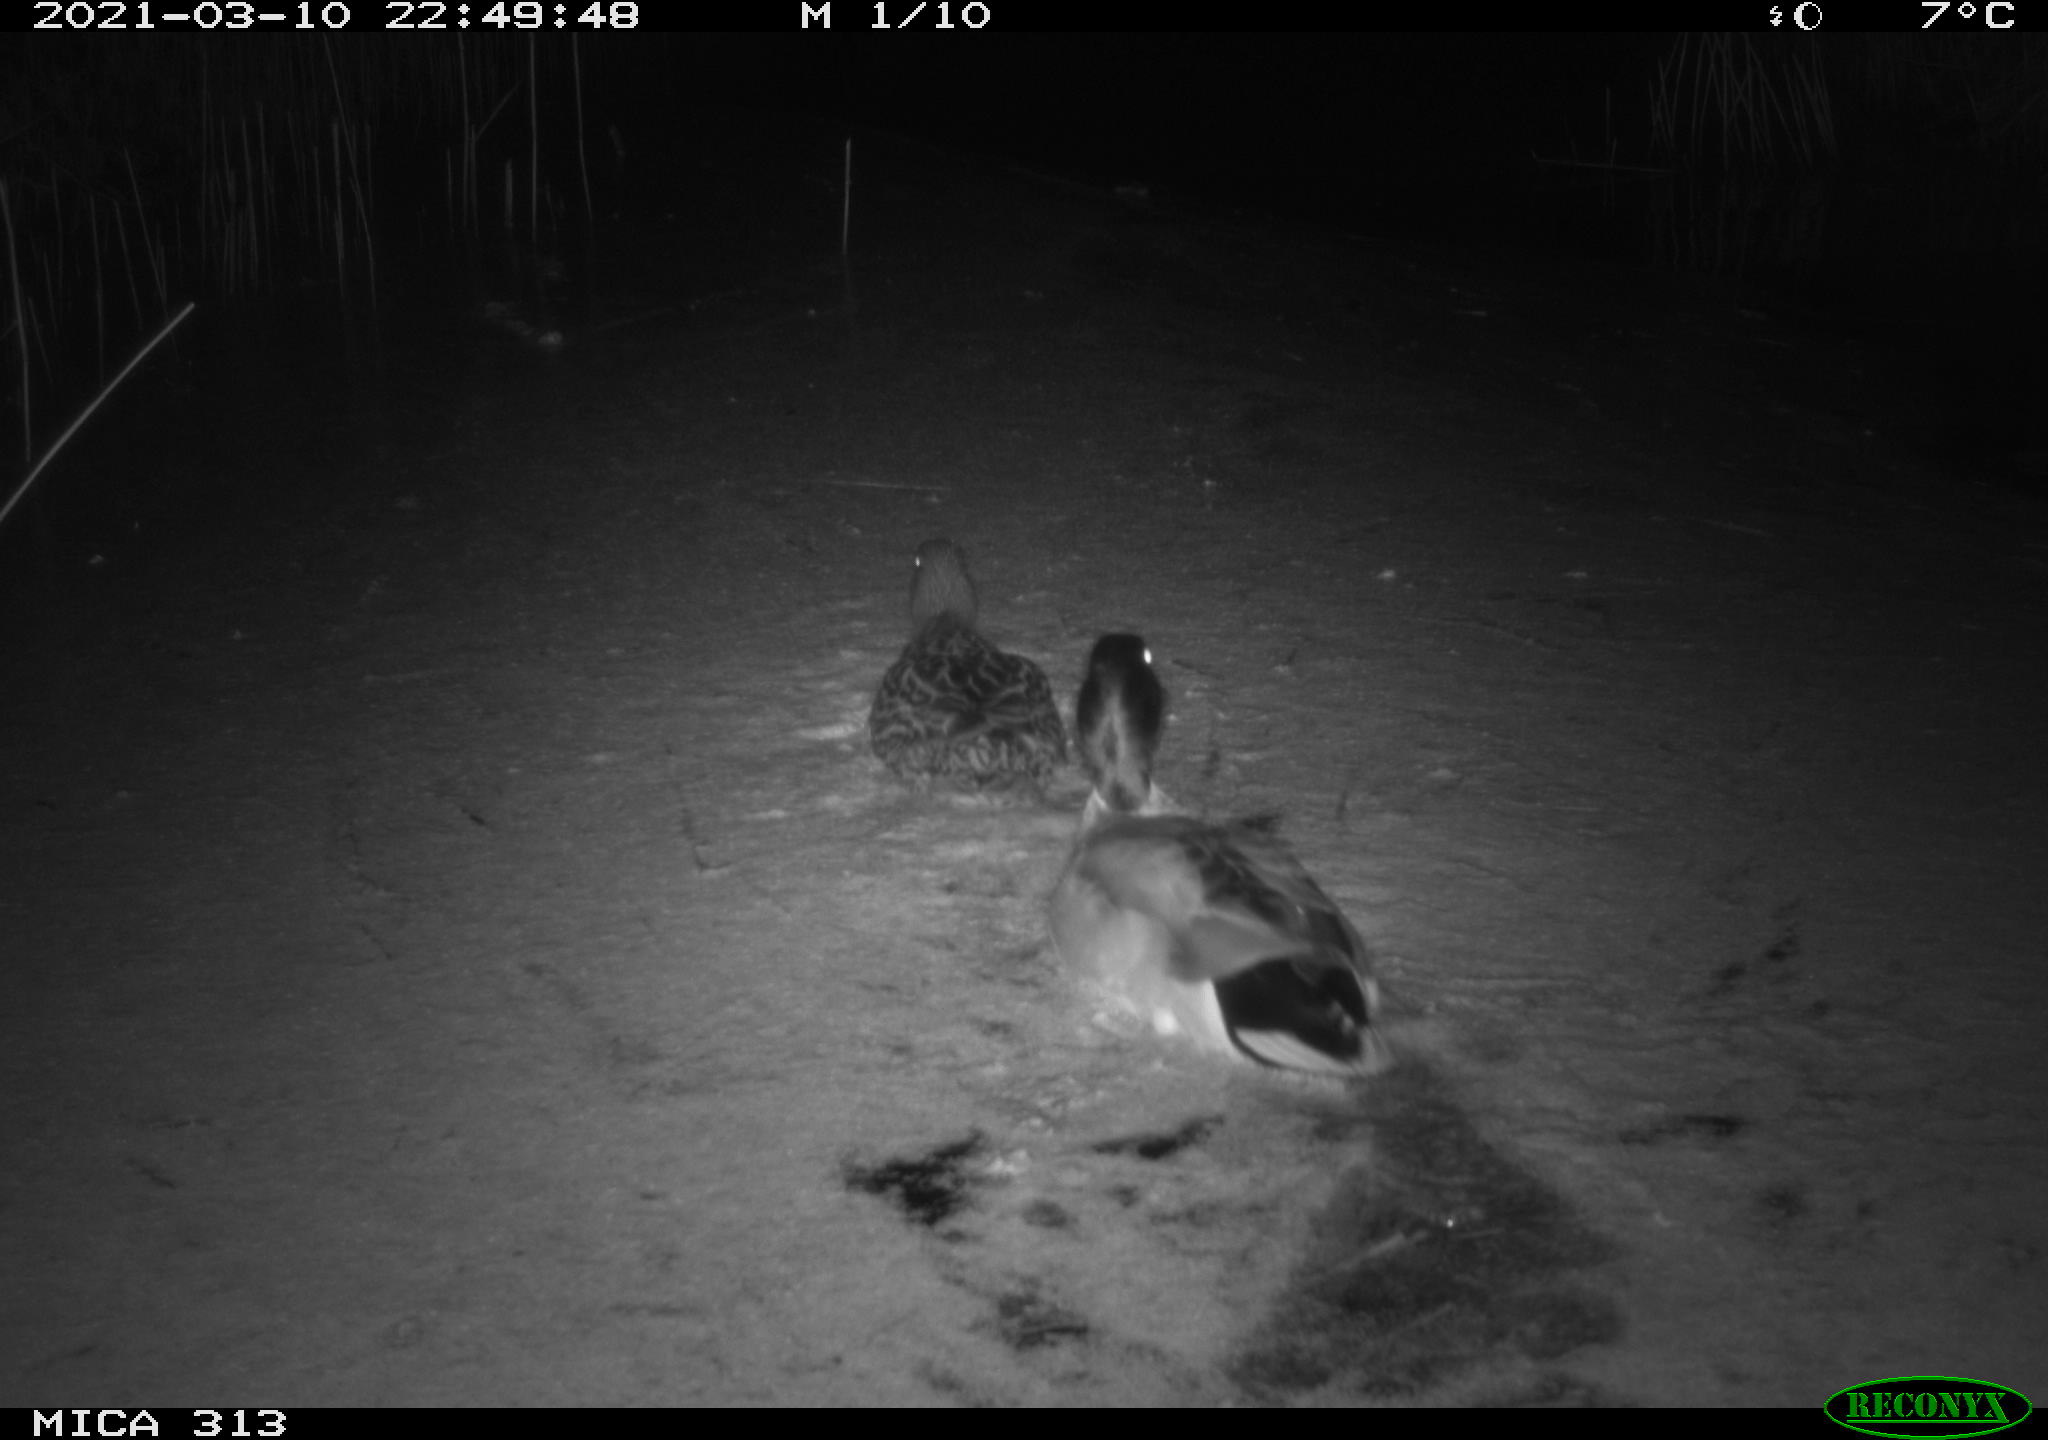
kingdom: Animalia
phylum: Chordata
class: Aves
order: Anseriformes
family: Anatidae
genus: Anas
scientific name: Anas platyrhynchos
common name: Mallard
